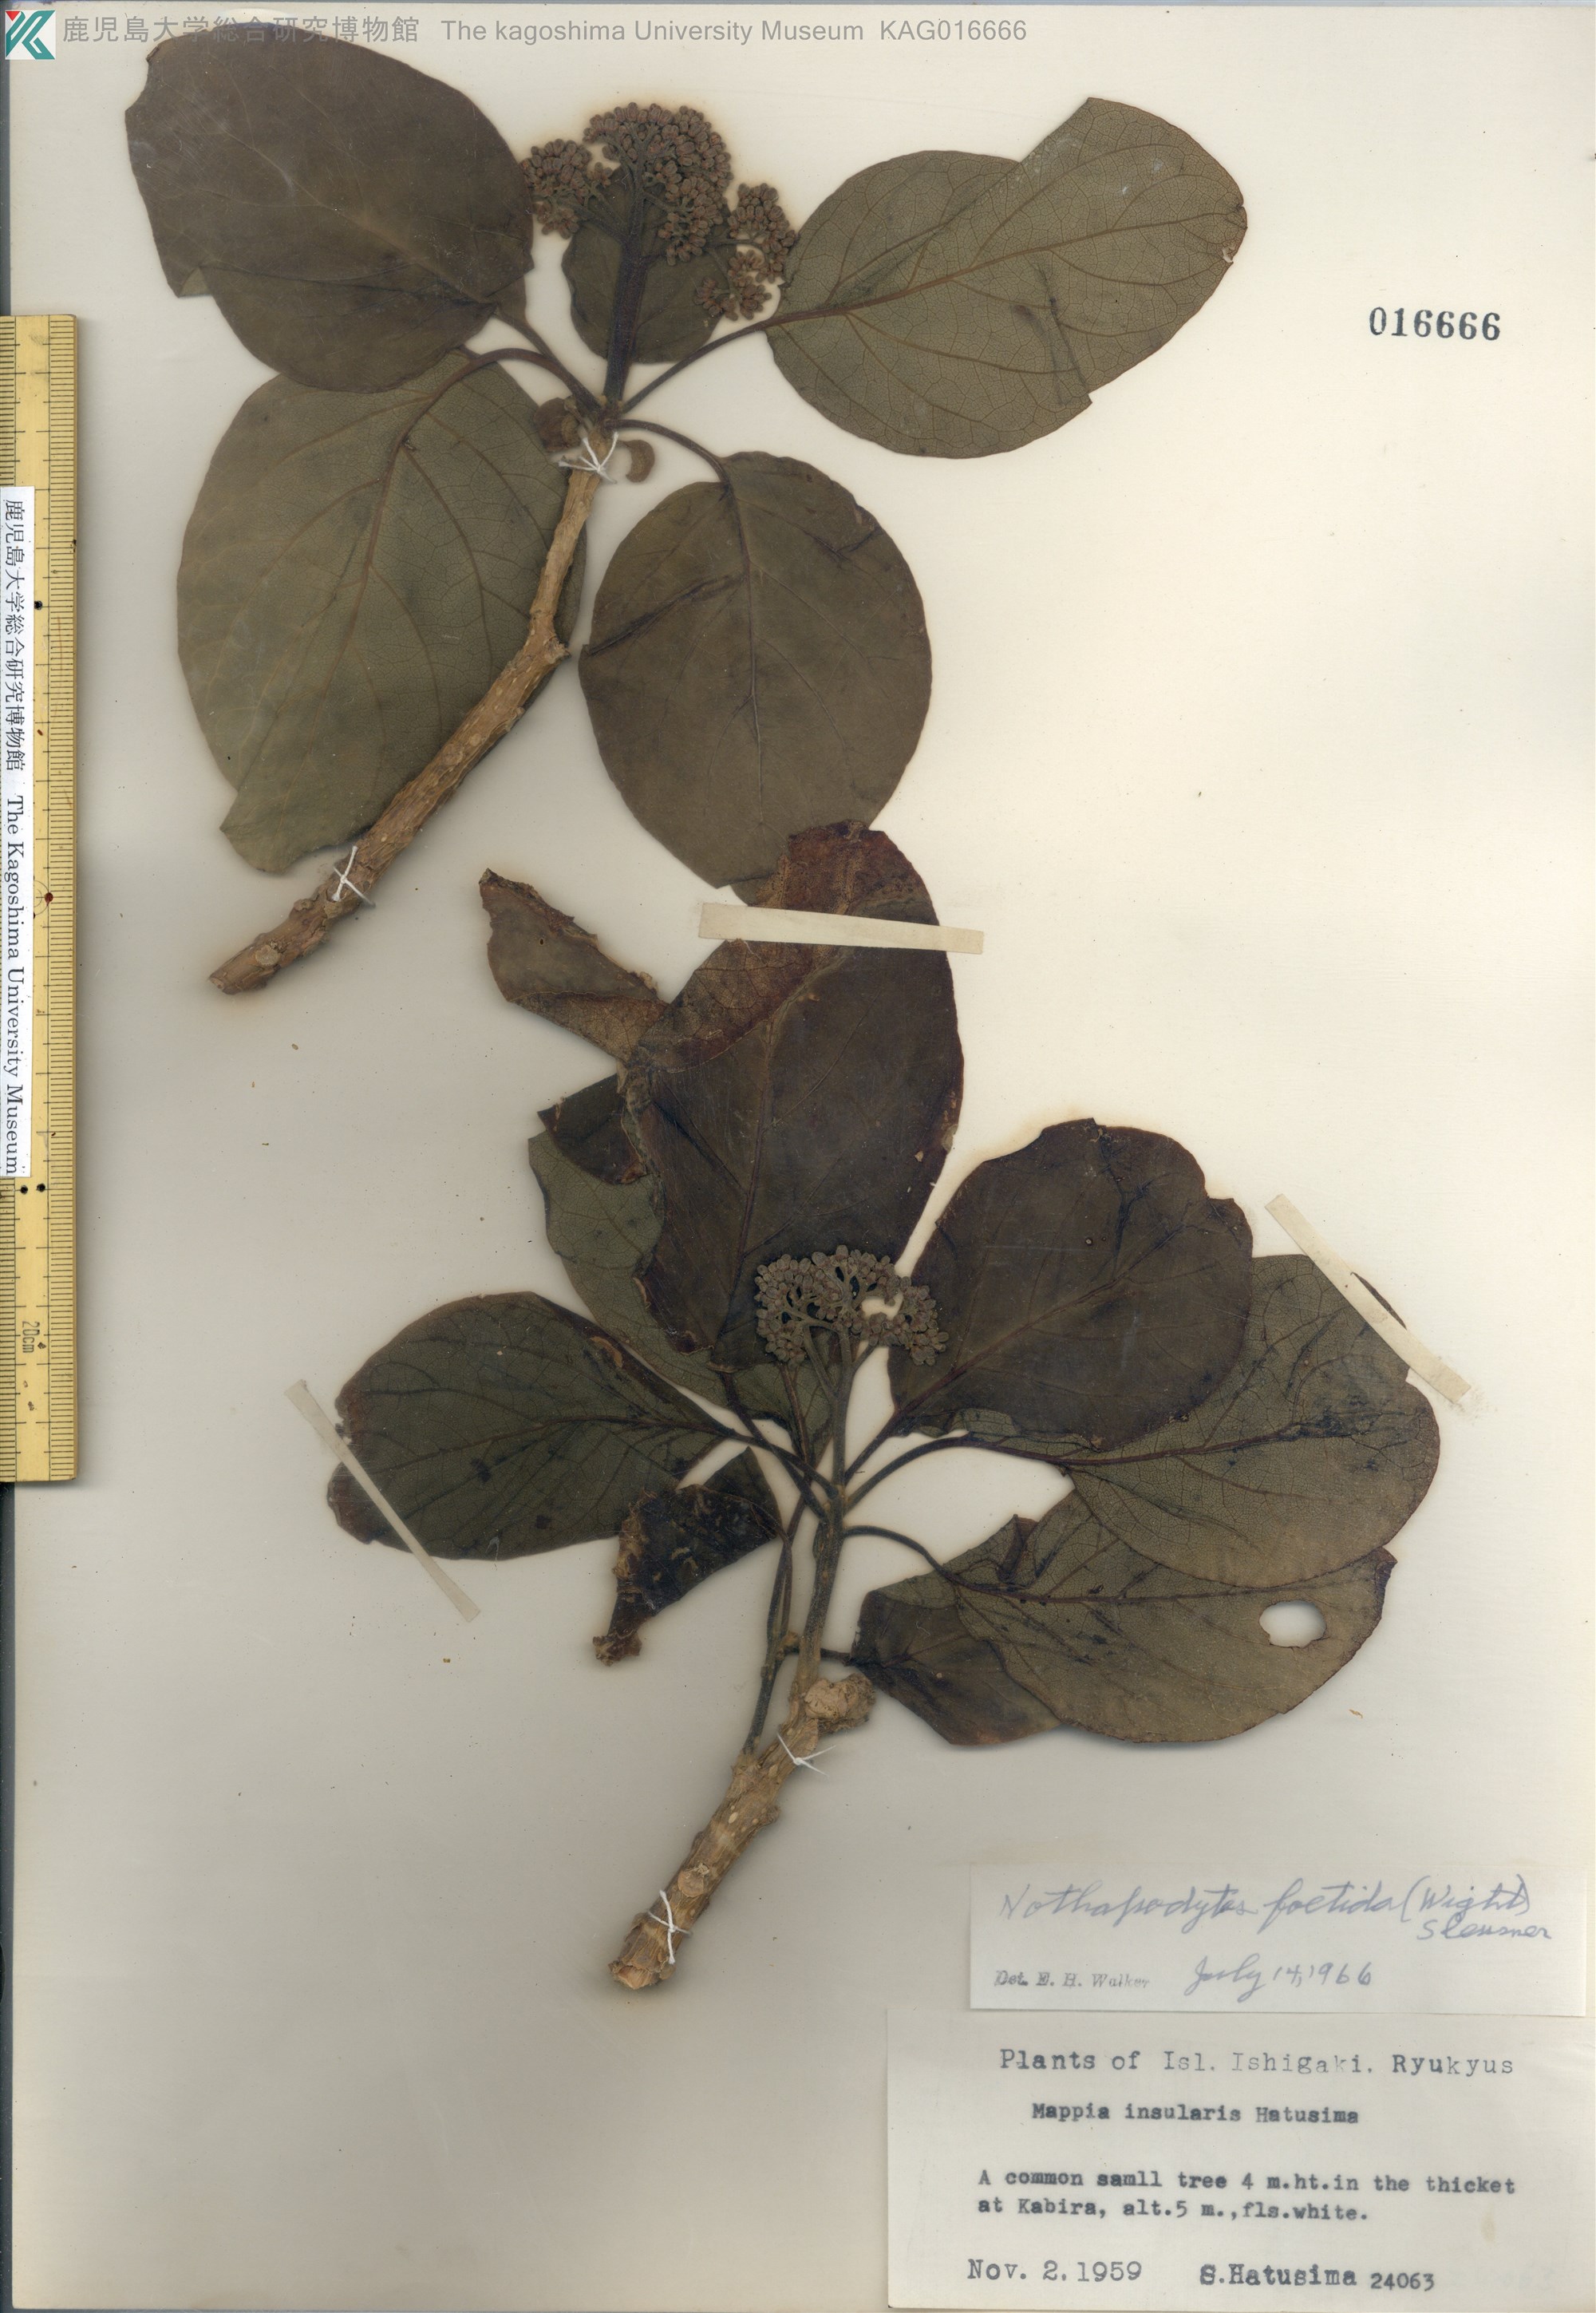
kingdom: Plantae
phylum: Tracheophyta
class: Magnoliopsida
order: Icacinales
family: Icacinaceae
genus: Nothapodytes
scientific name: Nothapodytes nimmoniana
